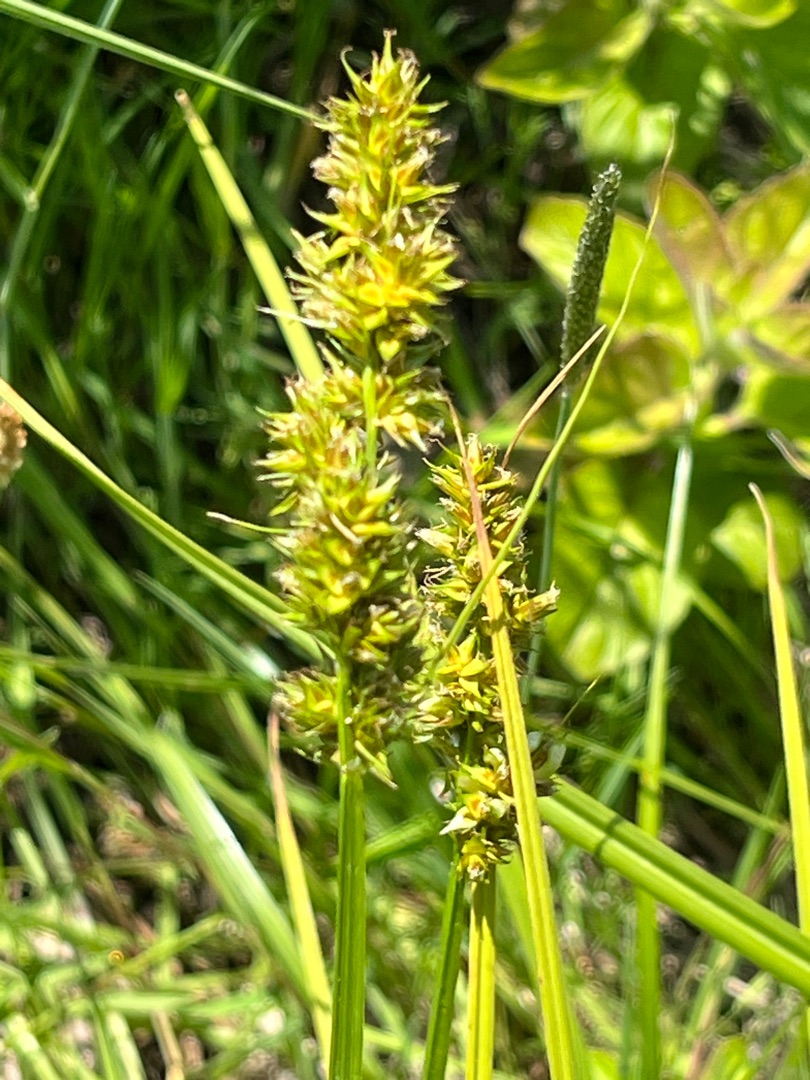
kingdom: Plantae
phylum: Tracheophyta
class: Liliopsida
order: Poales
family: Cyperaceae
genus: Carex
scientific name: Carex otrubae
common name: Sylt-star
